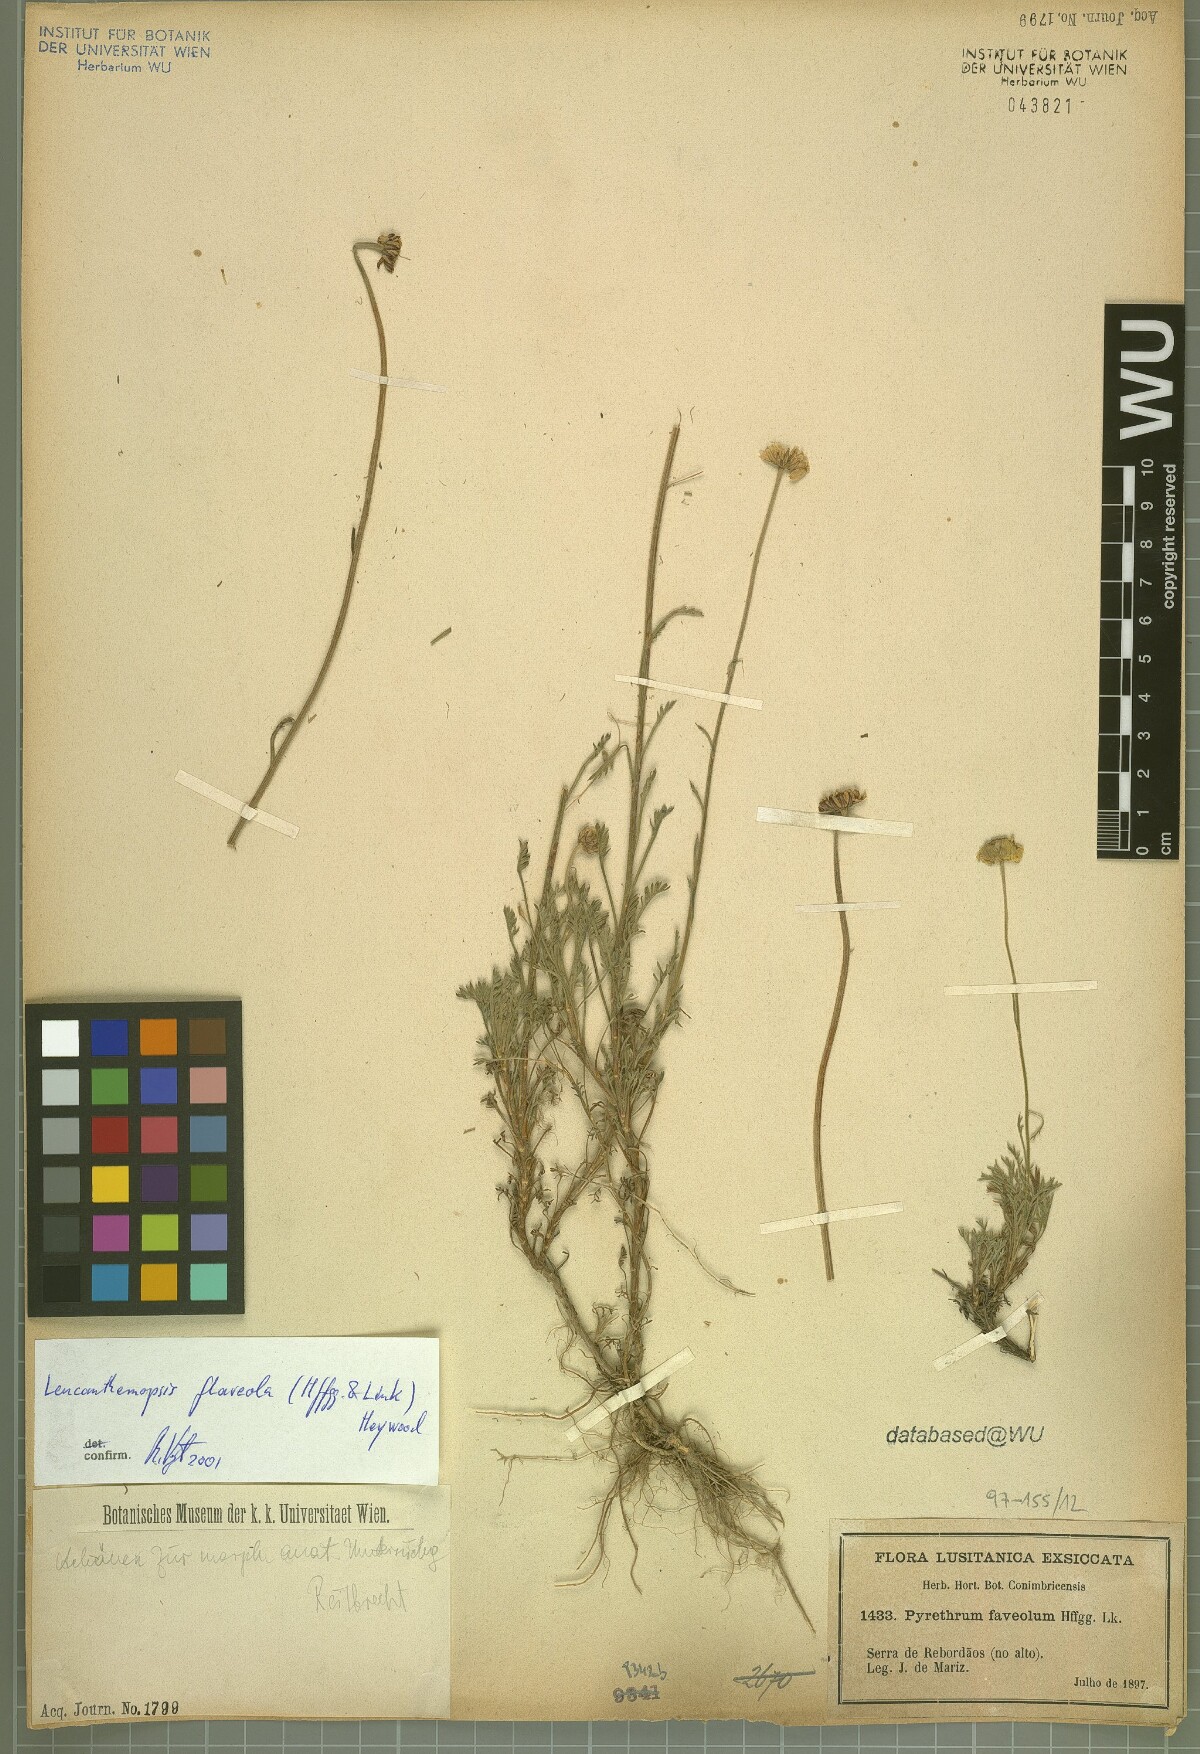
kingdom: Plantae
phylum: Tracheophyta
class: Magnoliopsida
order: Asterales
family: Asteraceae
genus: Leucanthemopsis
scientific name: Leucanthemopsis flaveola
